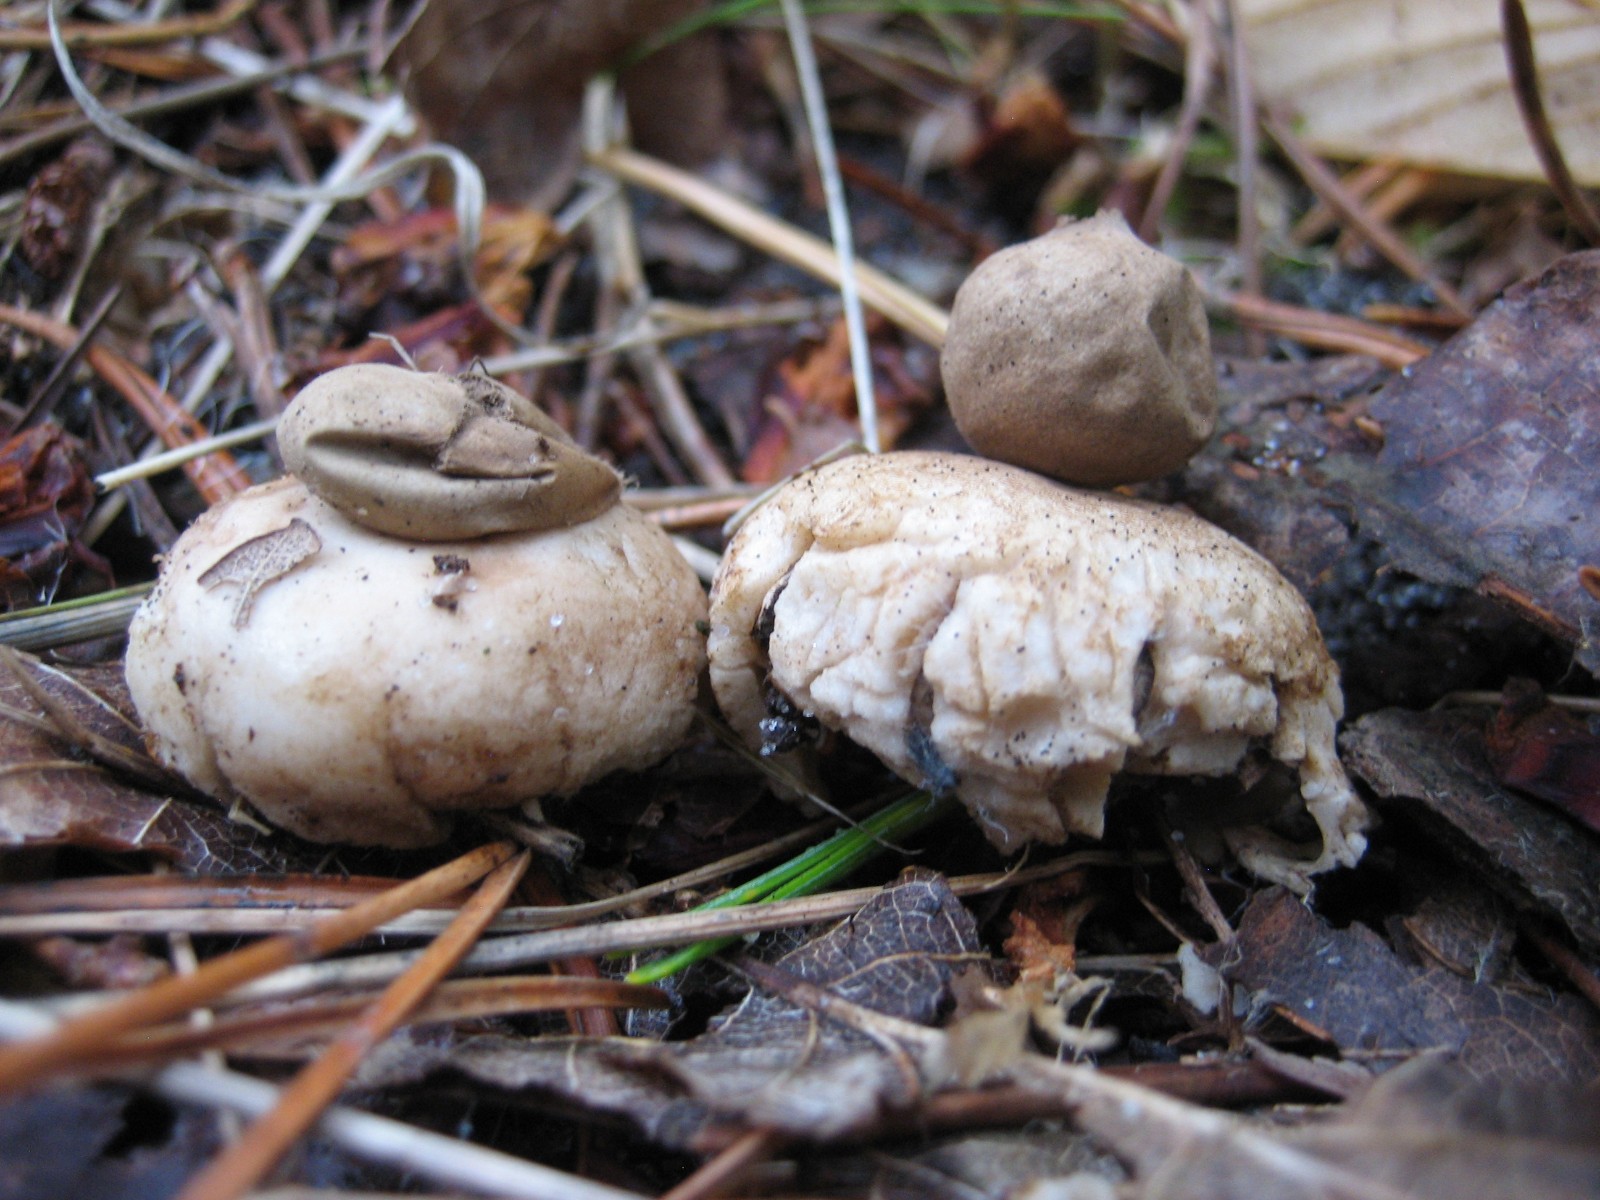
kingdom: Fungi
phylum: Basidiomycota
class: Agaricomycetes
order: Geastrales
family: Geastraceae
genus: Geastrum
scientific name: Geastrum fimbriatum
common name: frynset stjernebold
